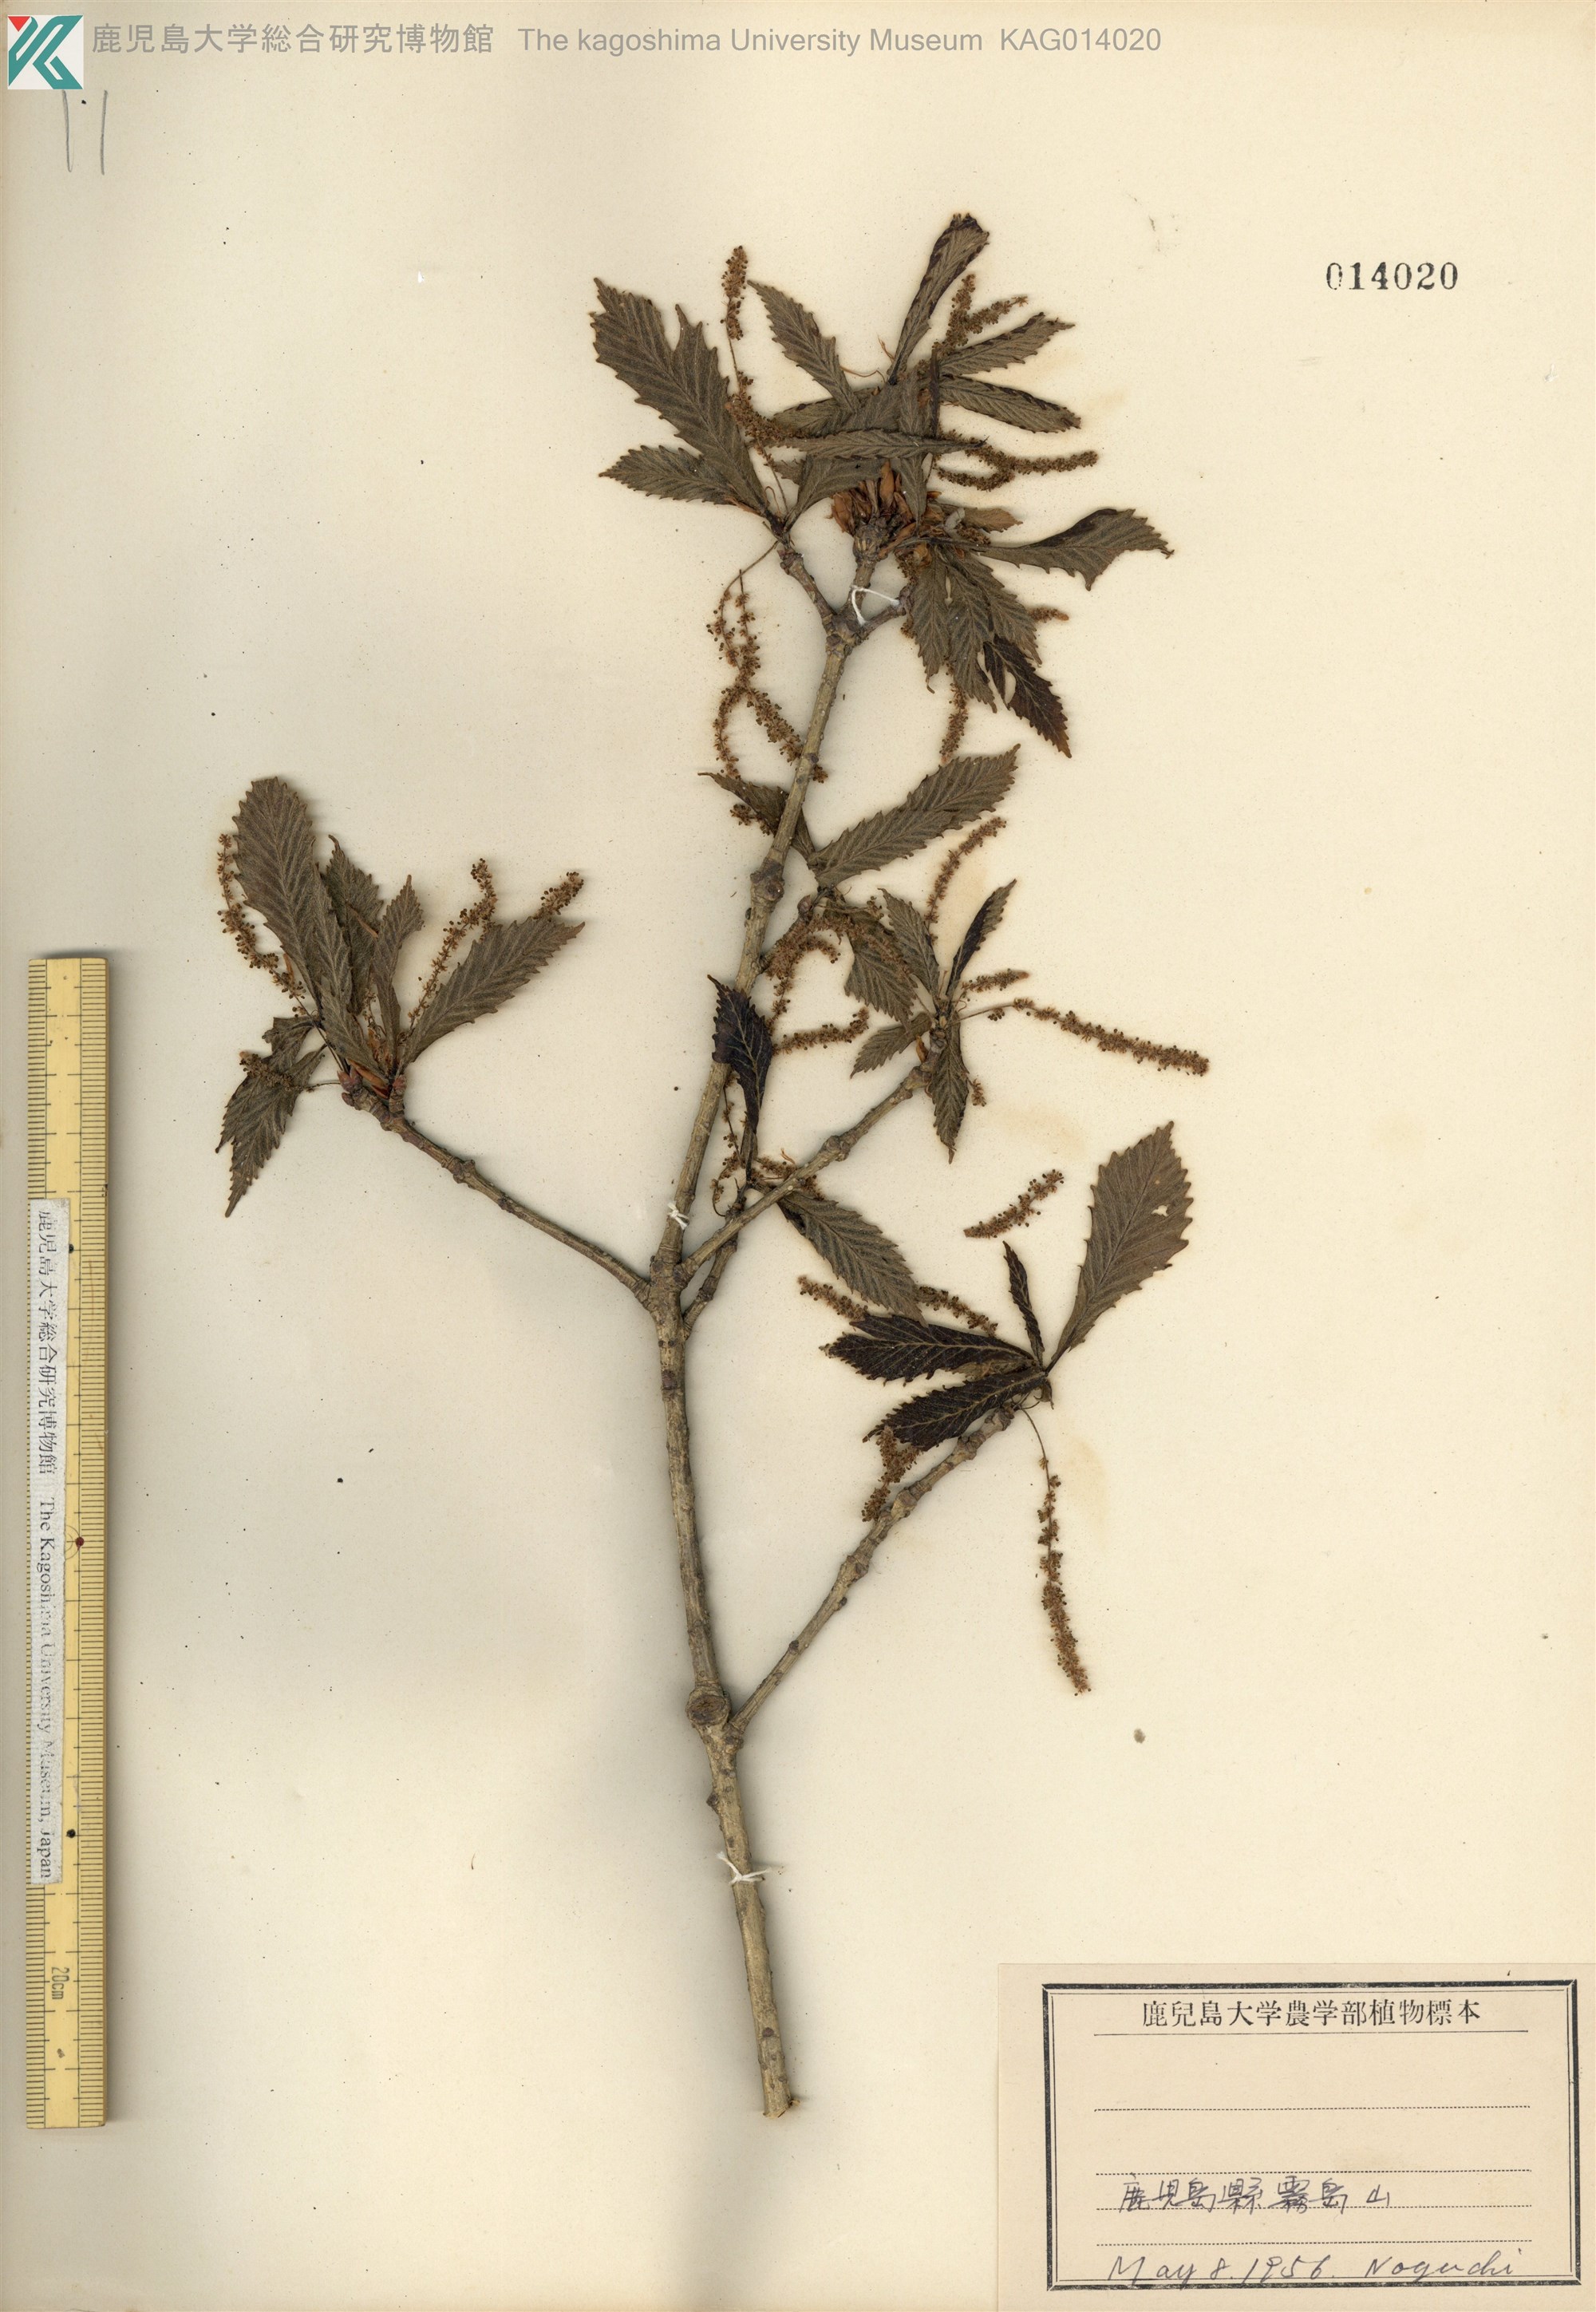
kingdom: Plantae
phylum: Tracheophyta
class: Magnoliopsida
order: Fagales
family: Fagaceae
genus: Quercus
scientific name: Quercus crispula
